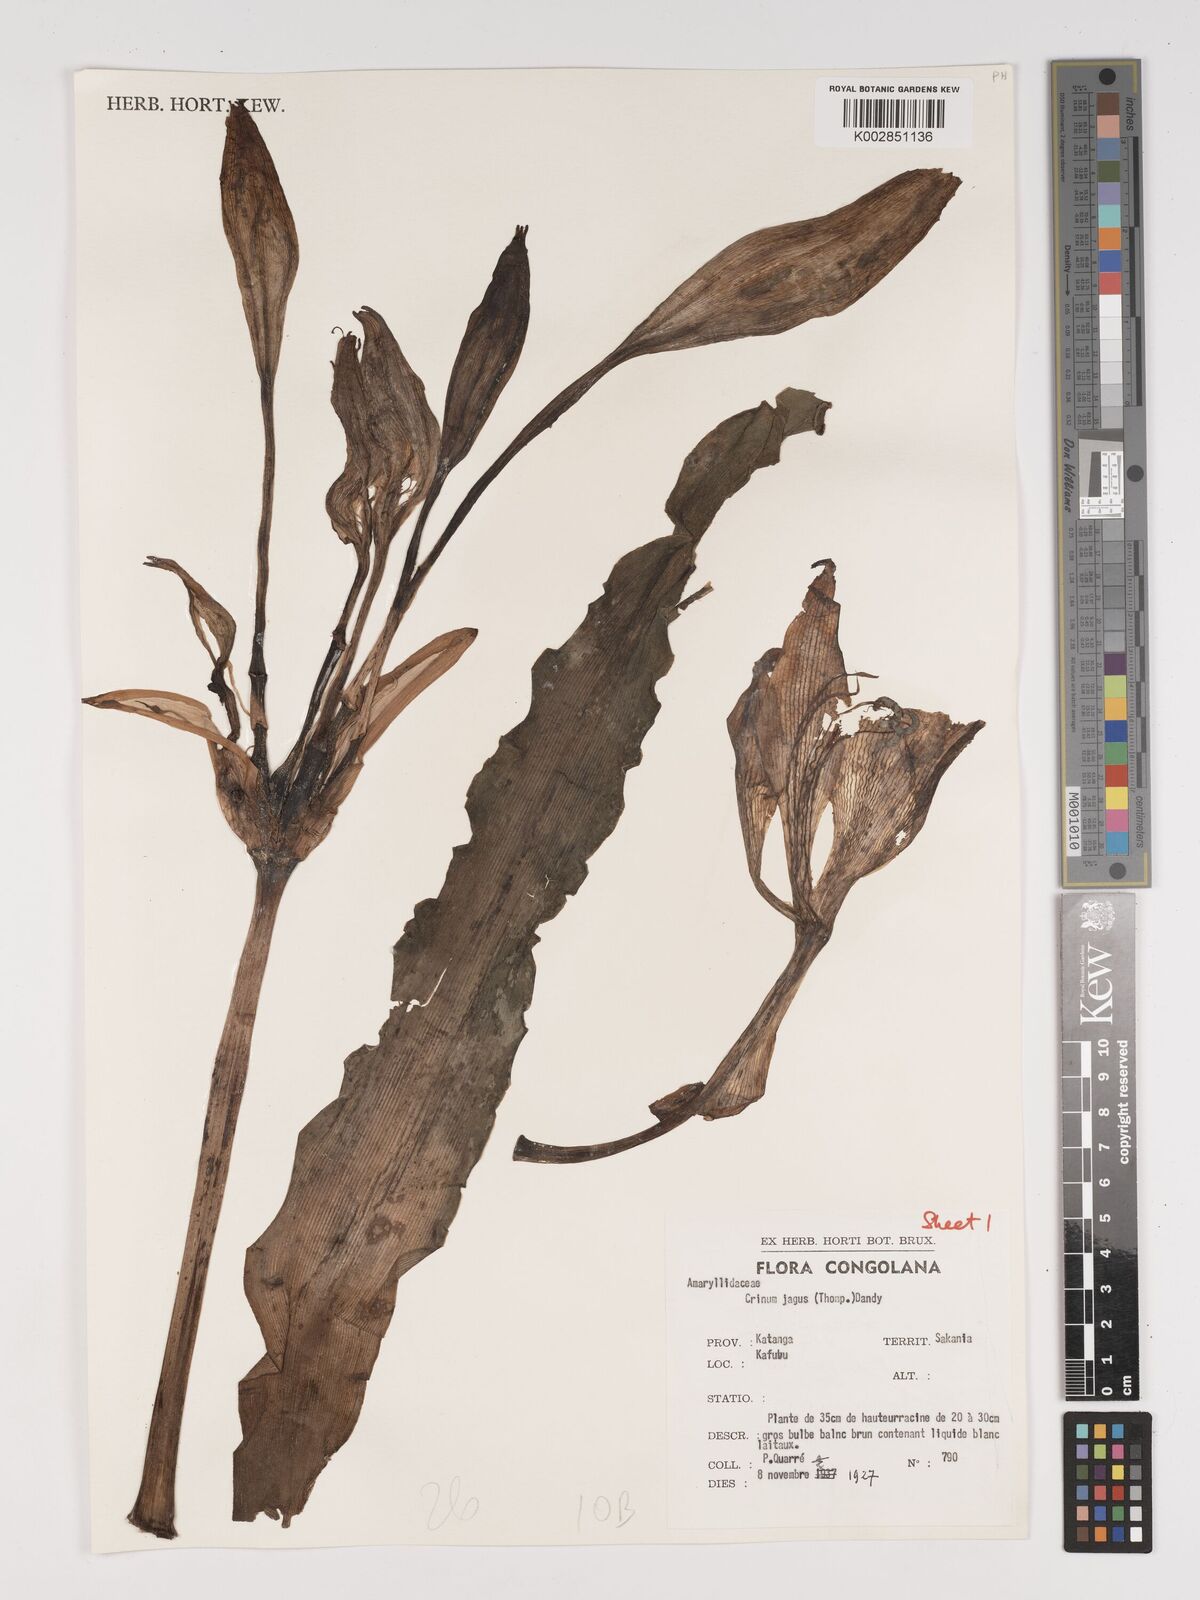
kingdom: Plantae
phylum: Tracheophyta
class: Liliopsida
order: Asparagales
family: Amaryllidaceae
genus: Crinum
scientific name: Crinum jagus
